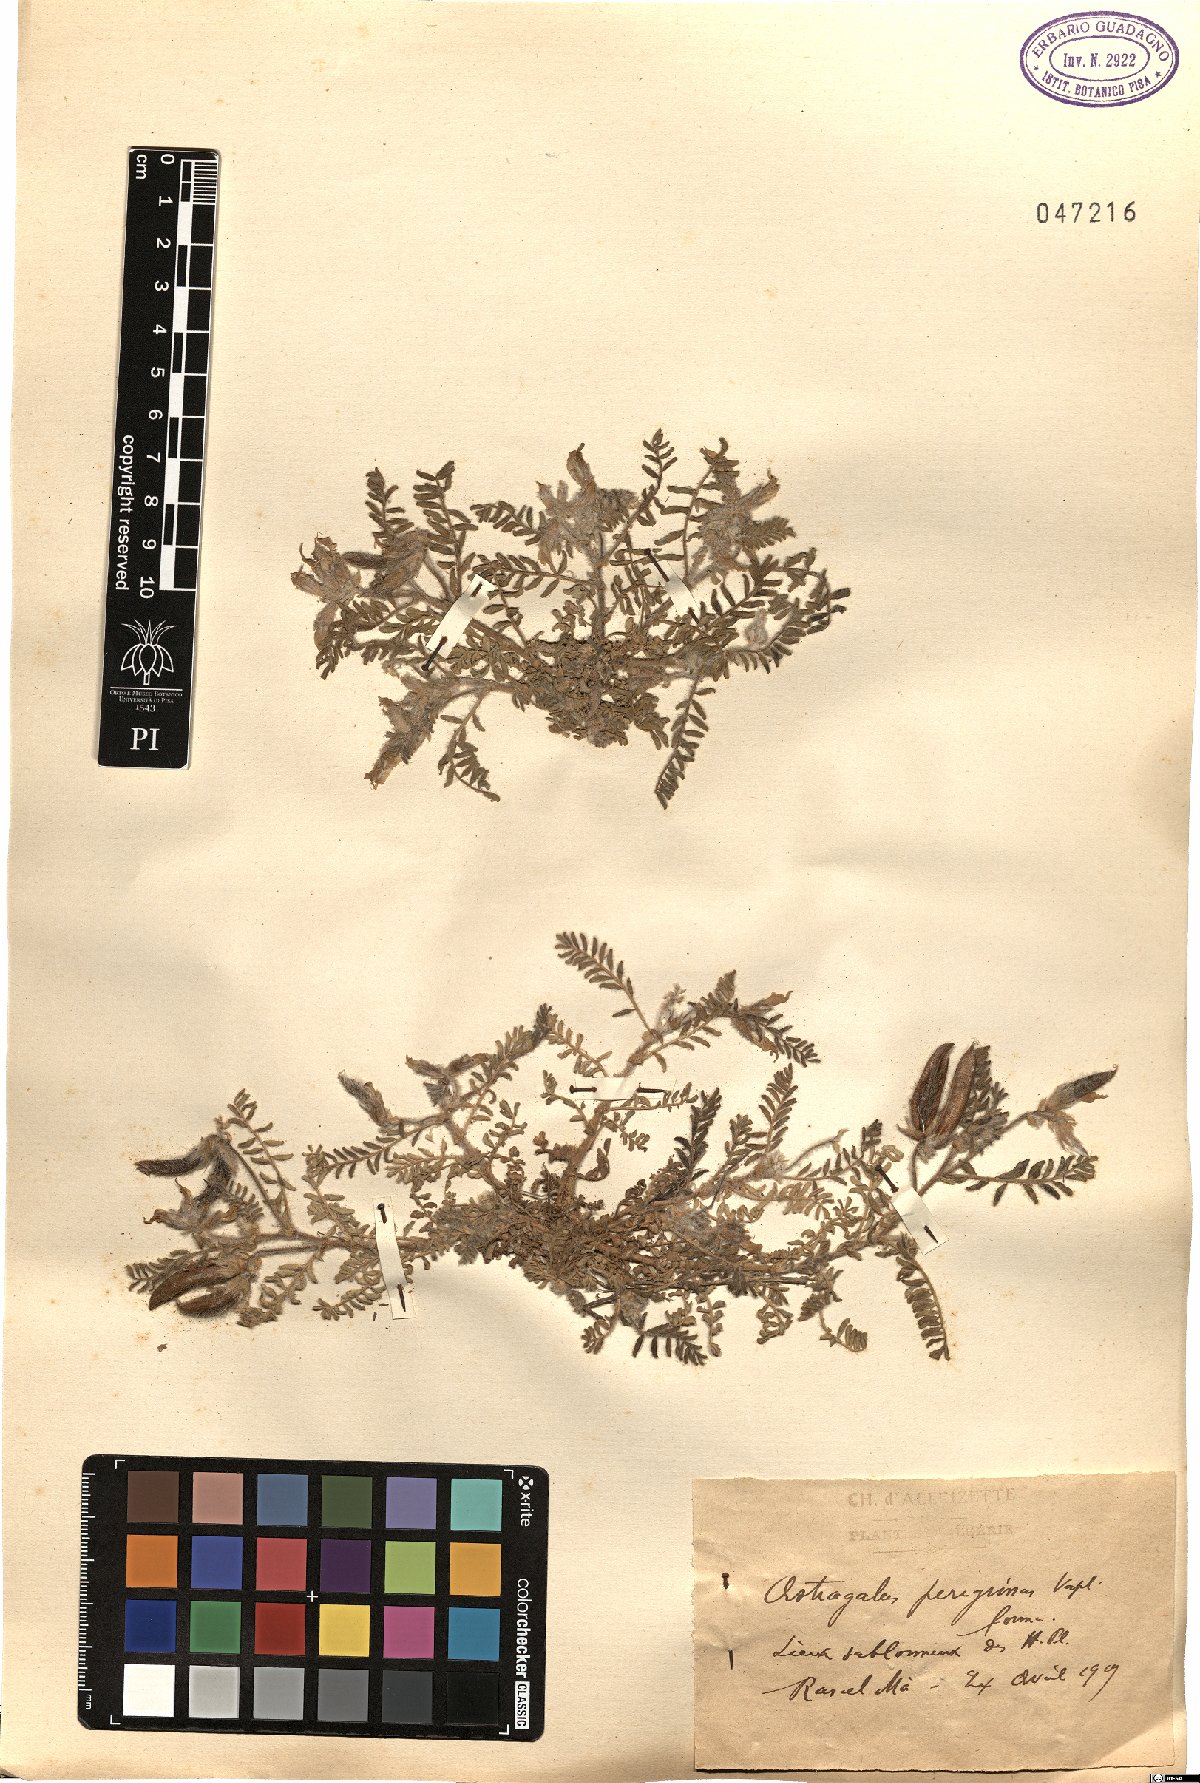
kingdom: Plantae
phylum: Tracheophyta
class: Magnoliopsida
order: Fabales
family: Fabaceae
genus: Astragalus
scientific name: Astragalus peregrinus
